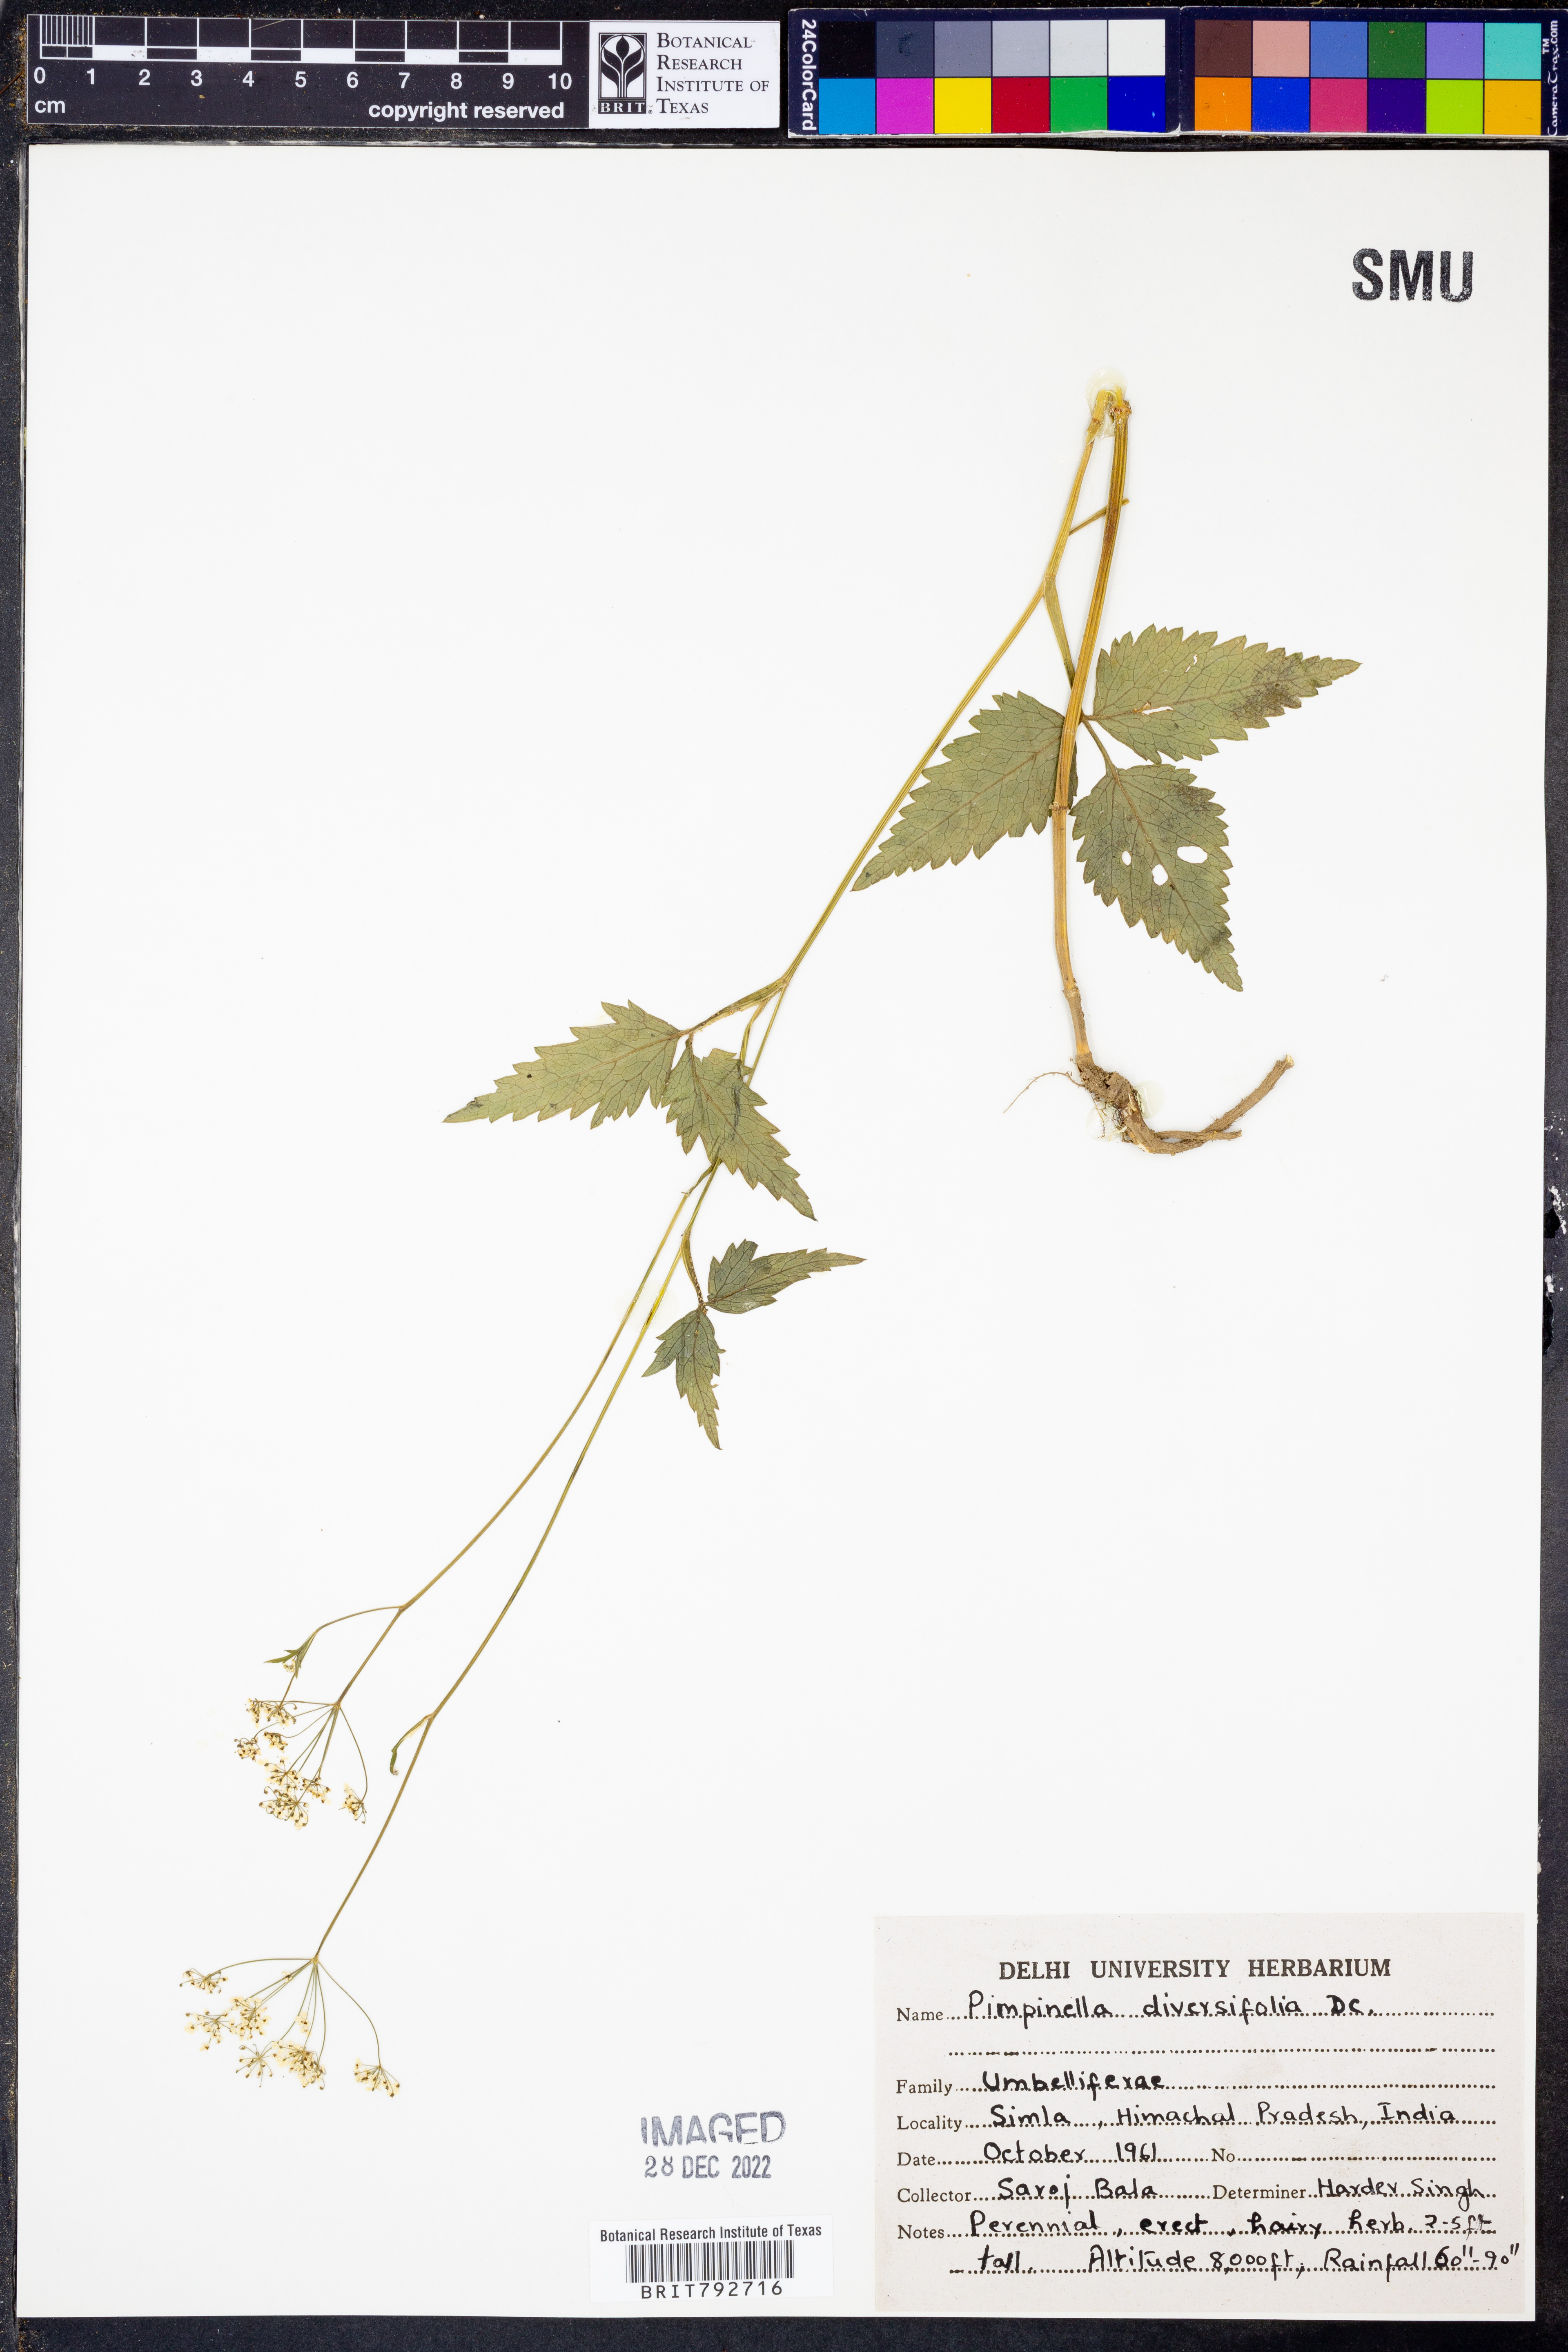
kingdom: Plantae
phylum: Tracheophyta
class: Magnoliopsida
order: Apiales
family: Apiaceae
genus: Pimpinella
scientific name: Pimpinella diversifolia
